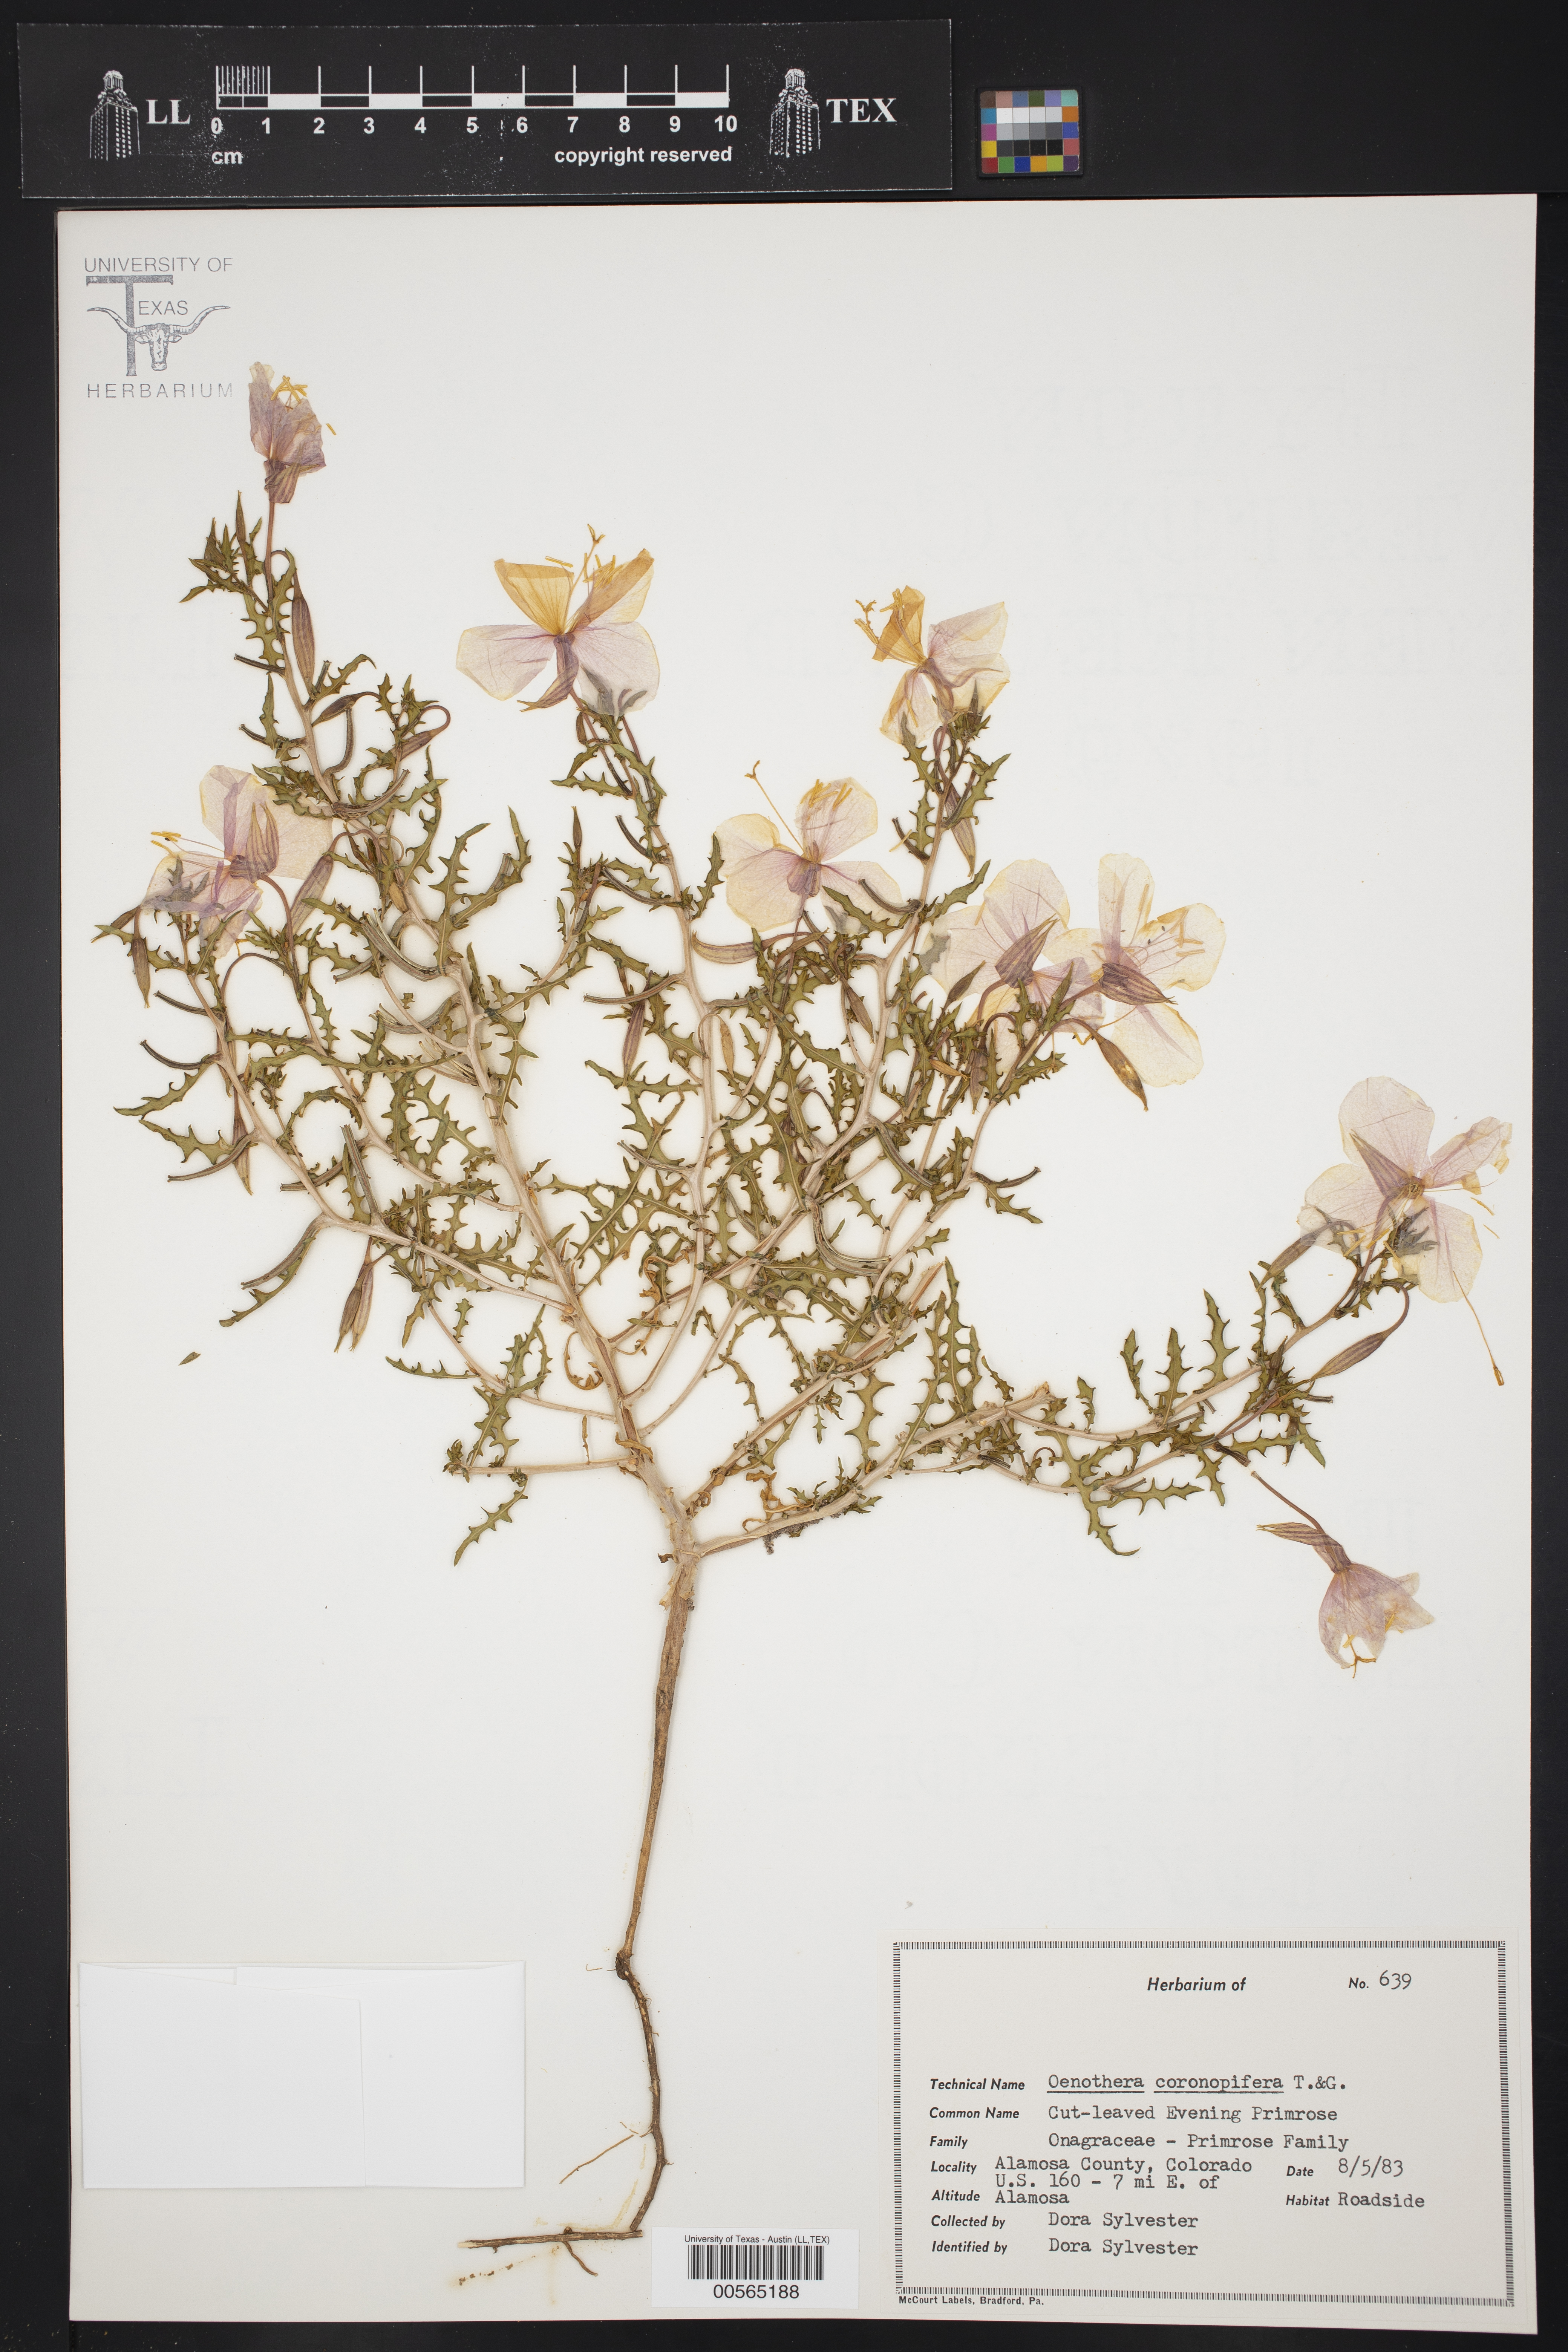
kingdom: Plantae
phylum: Tracheophyta
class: Magnoliopsida
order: Myrtales
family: Onagraceae
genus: Oenothera
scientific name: Oenothera coronopifolia
